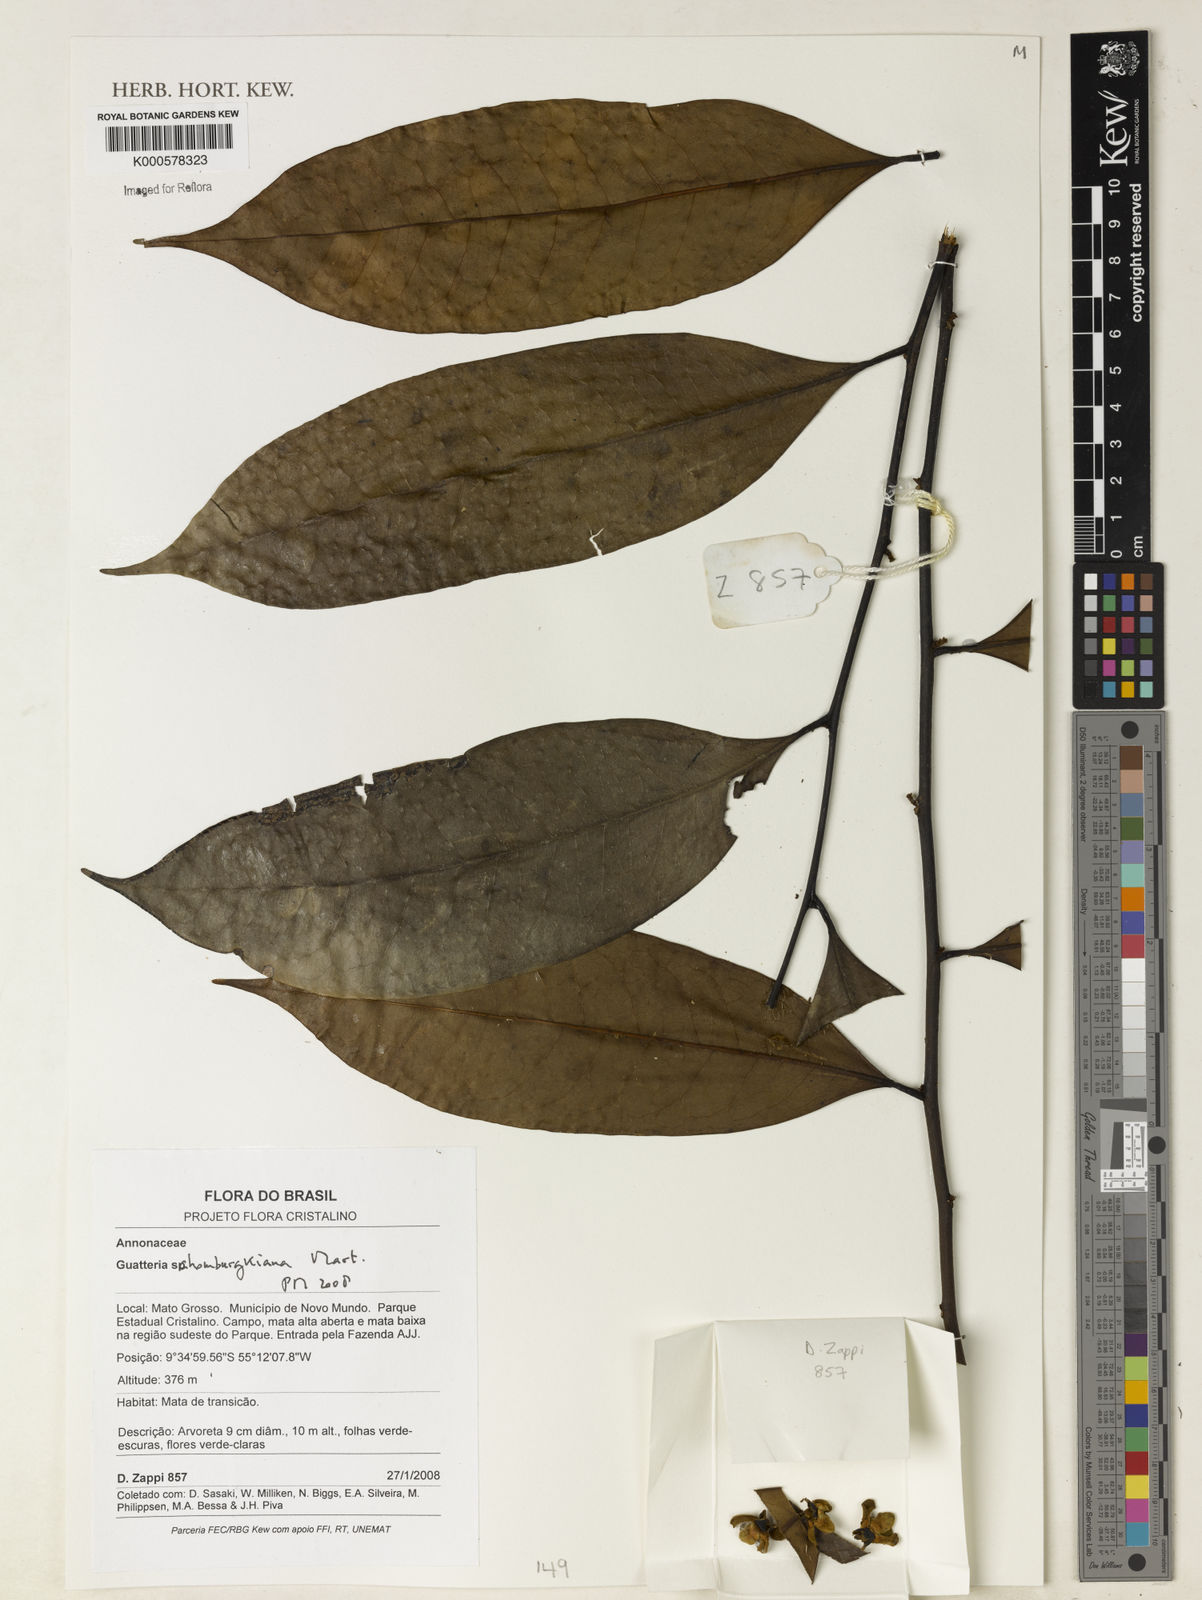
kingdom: Plantae
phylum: Tracheophyta
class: Magnoliopsida
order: Magnoliales
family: Annonaceae
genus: Guatteria
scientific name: Guatteria schomburgkiana
